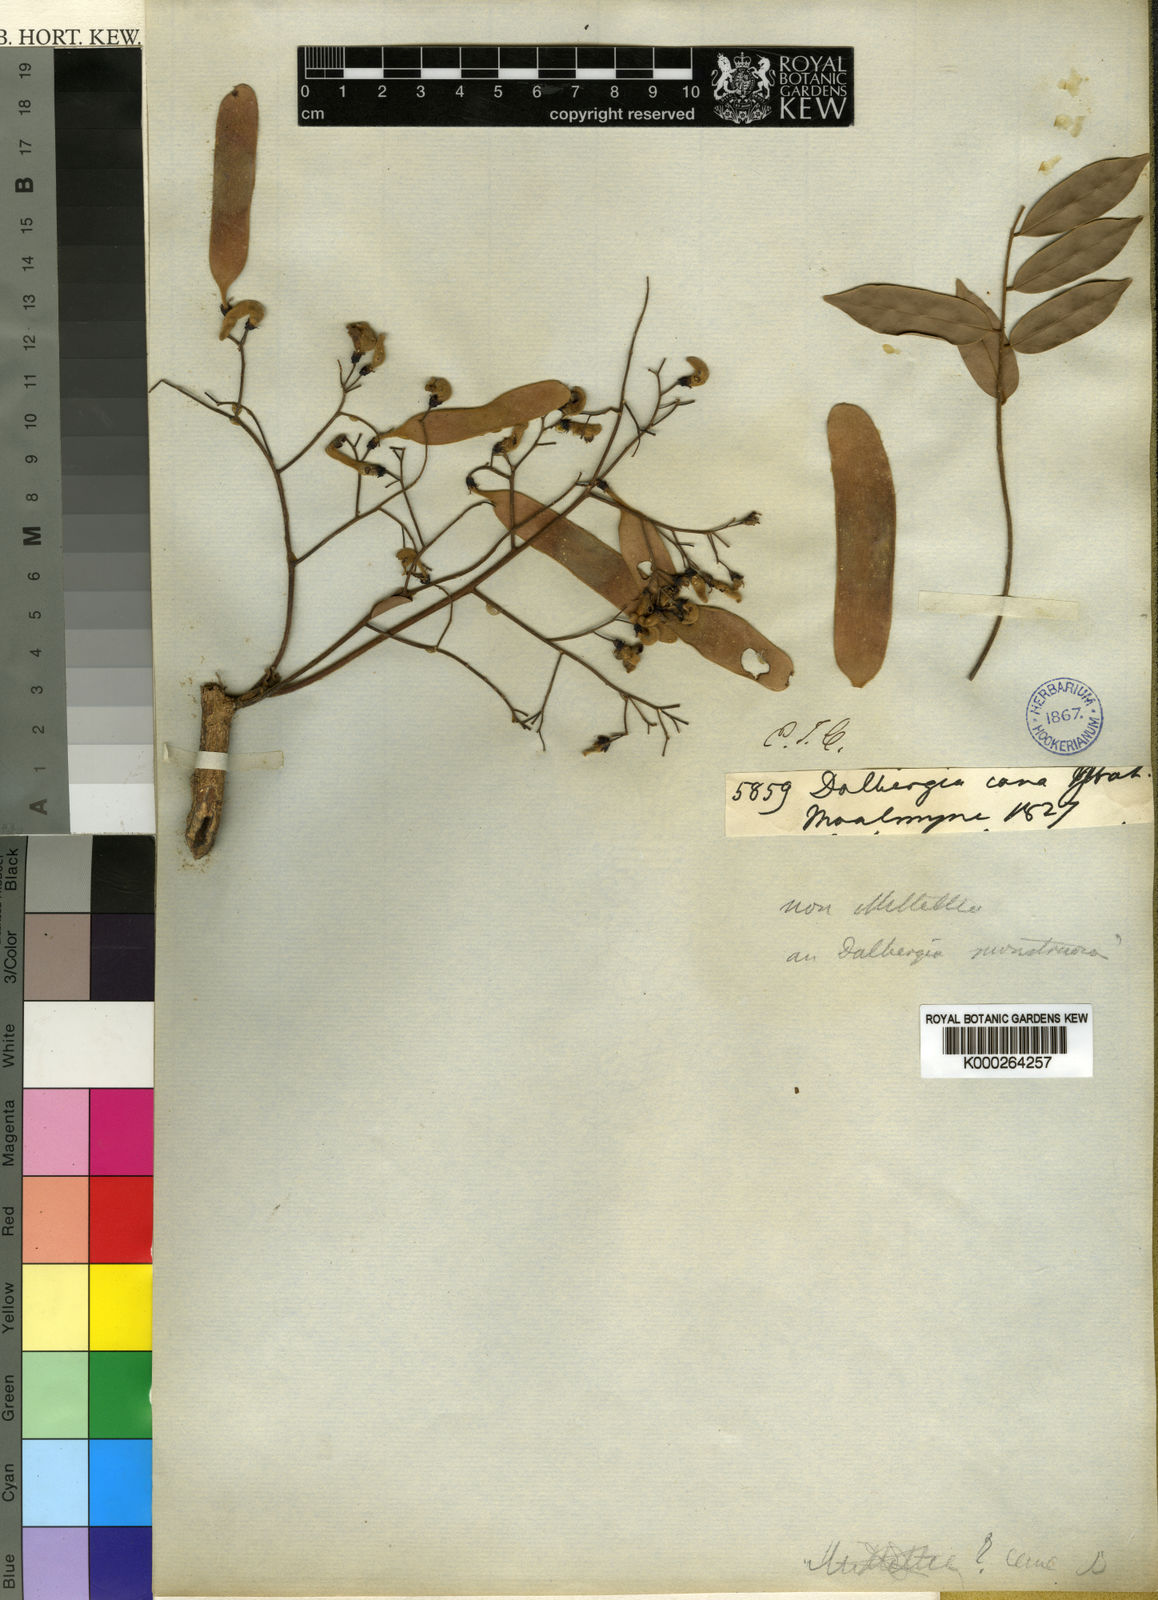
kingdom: Plantae
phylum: Tracheophyta
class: Magnoliopsida
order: Fabales
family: Fabaceae
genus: Dalbergia
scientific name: Dalbergia
